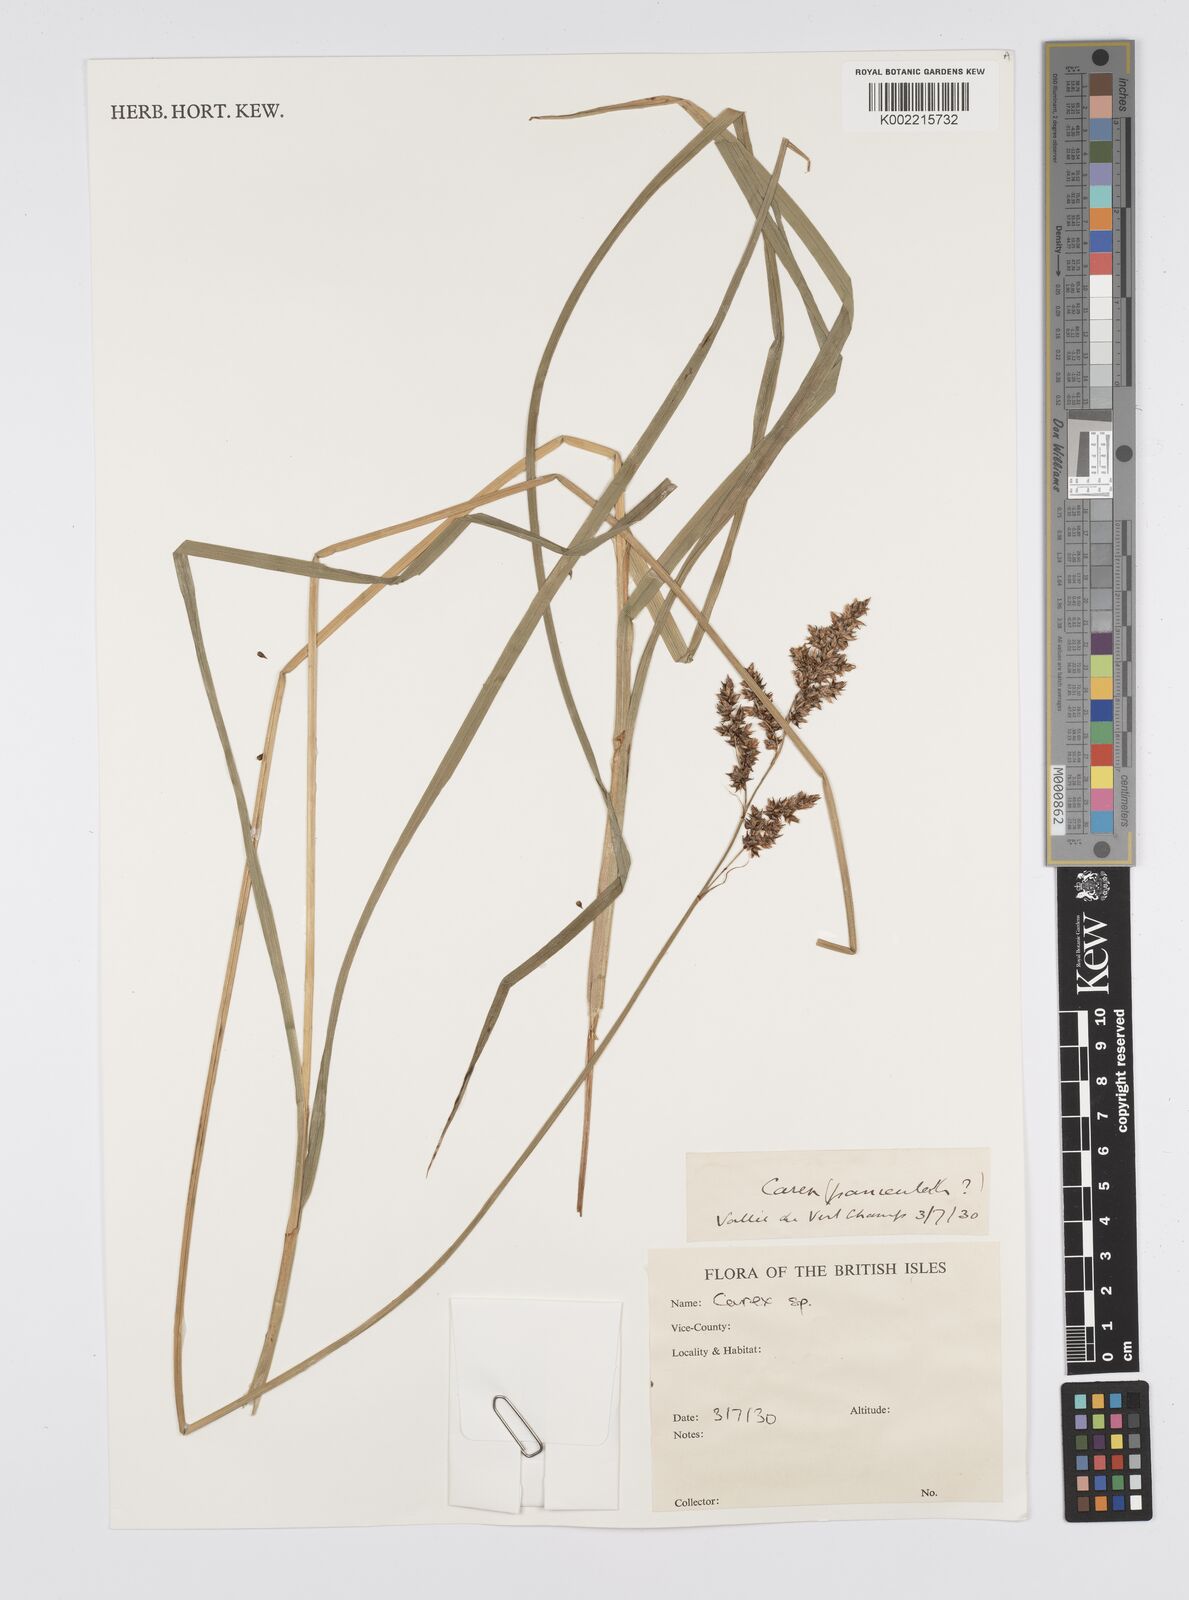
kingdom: Plantae
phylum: Tracheophyta
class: Liliopsida
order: Poales
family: Cyperaceae
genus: Carex
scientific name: Carex
